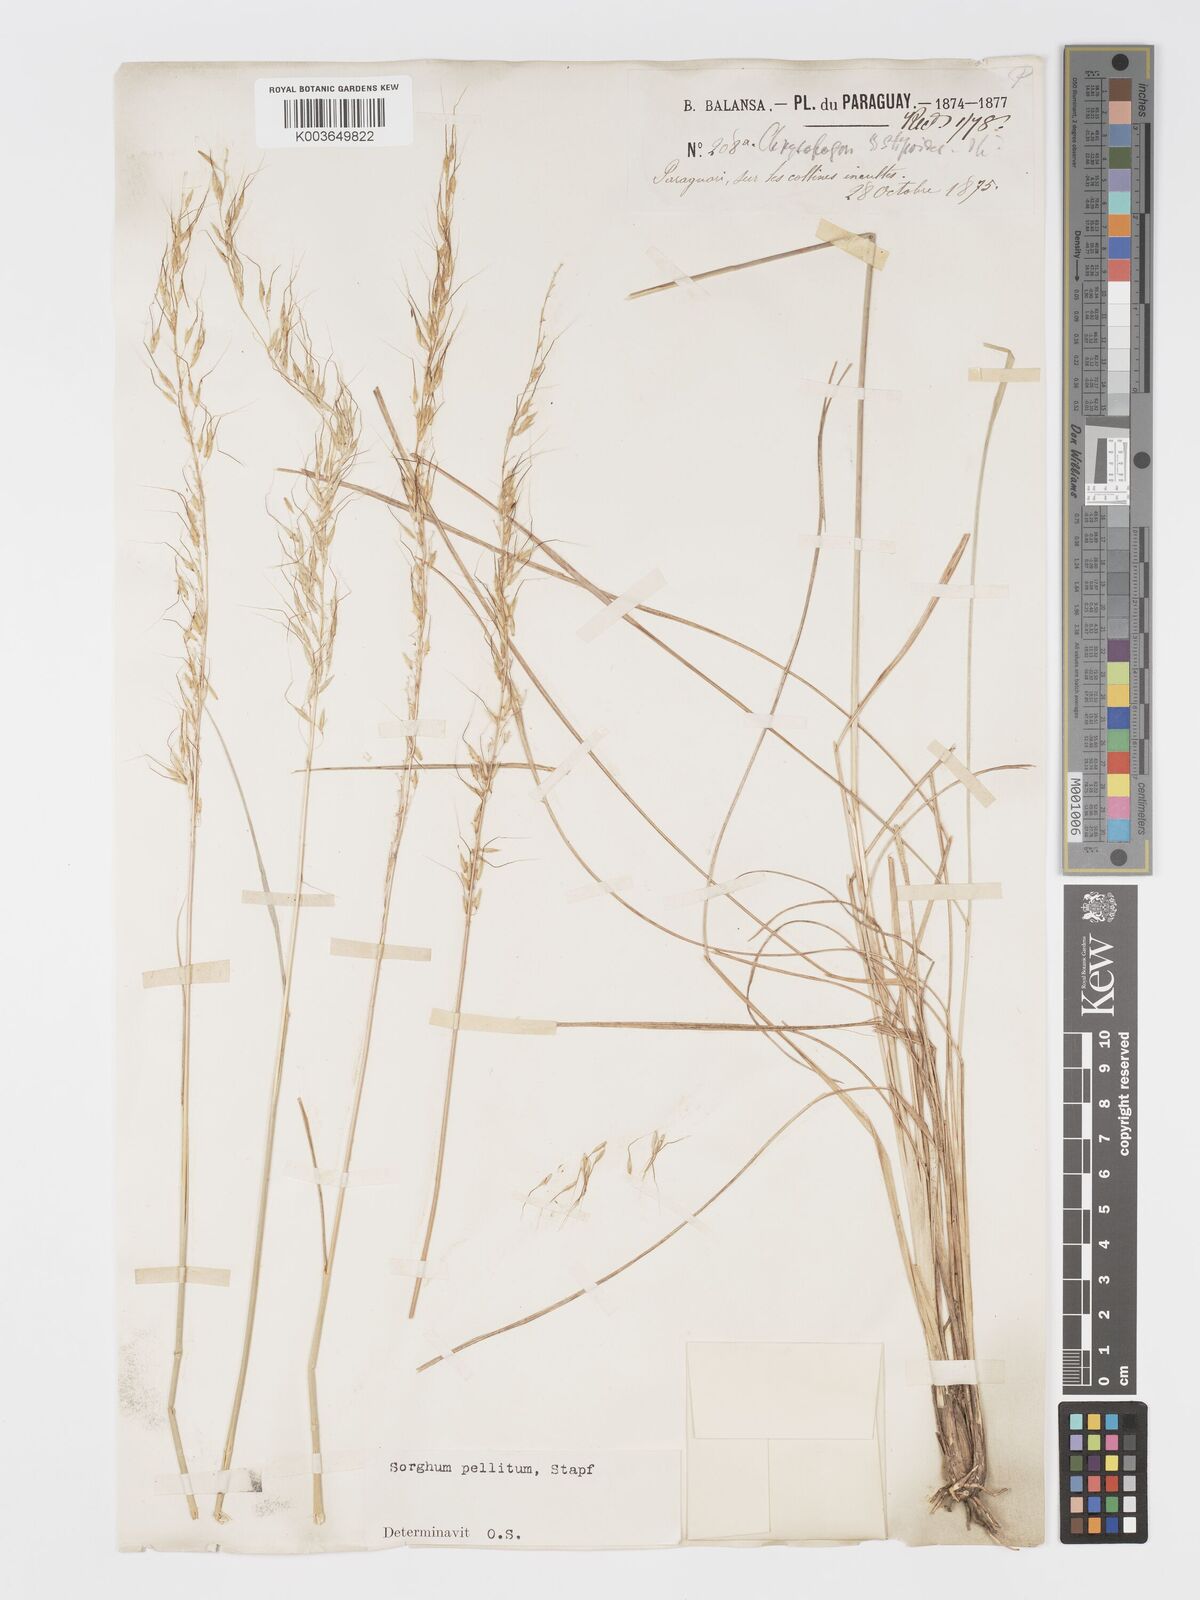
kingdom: Plantae
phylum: Tracheophyta
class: Liliopsida
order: Poales
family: Poaceae
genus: Sorghastrum
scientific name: Sorghastrum pellitum
